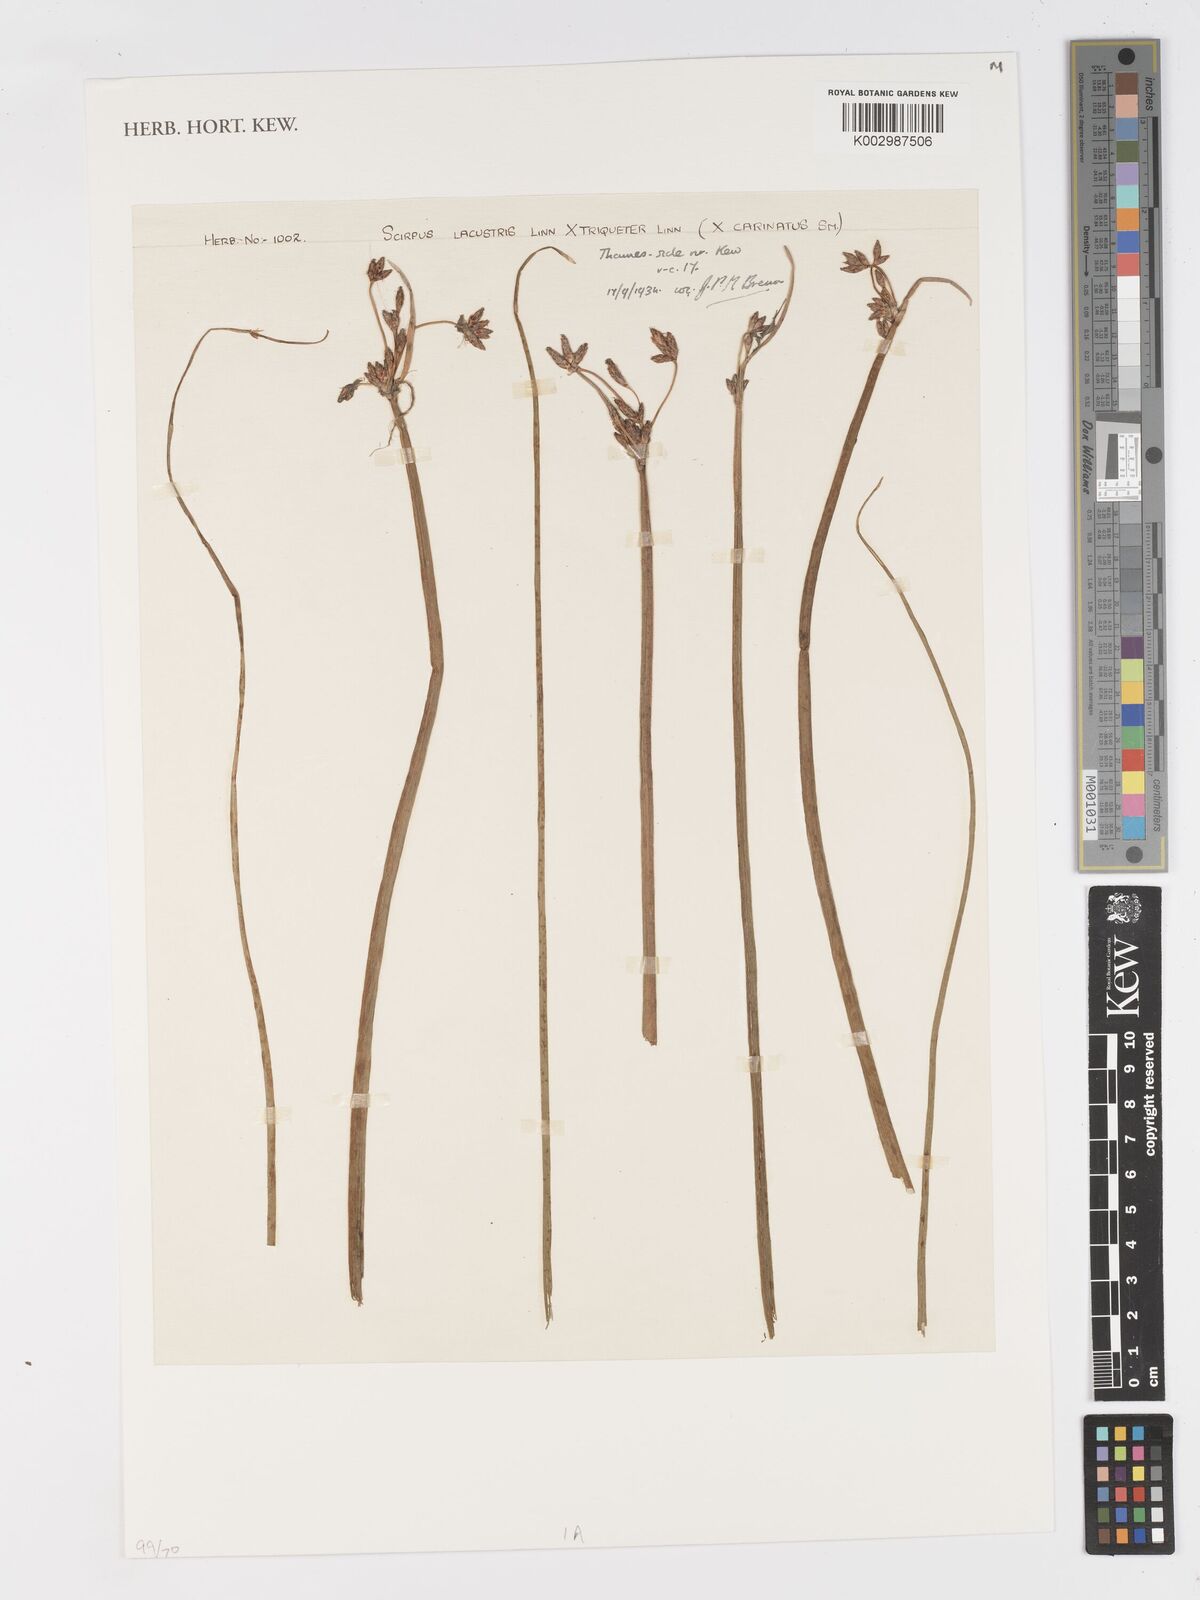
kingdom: Plantae
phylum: Tracheophyta
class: Liliopsida
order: Poales
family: Cyperaceae
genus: Schoenoplectus
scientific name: Schoenoplectus lacustris
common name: Common club-rush
